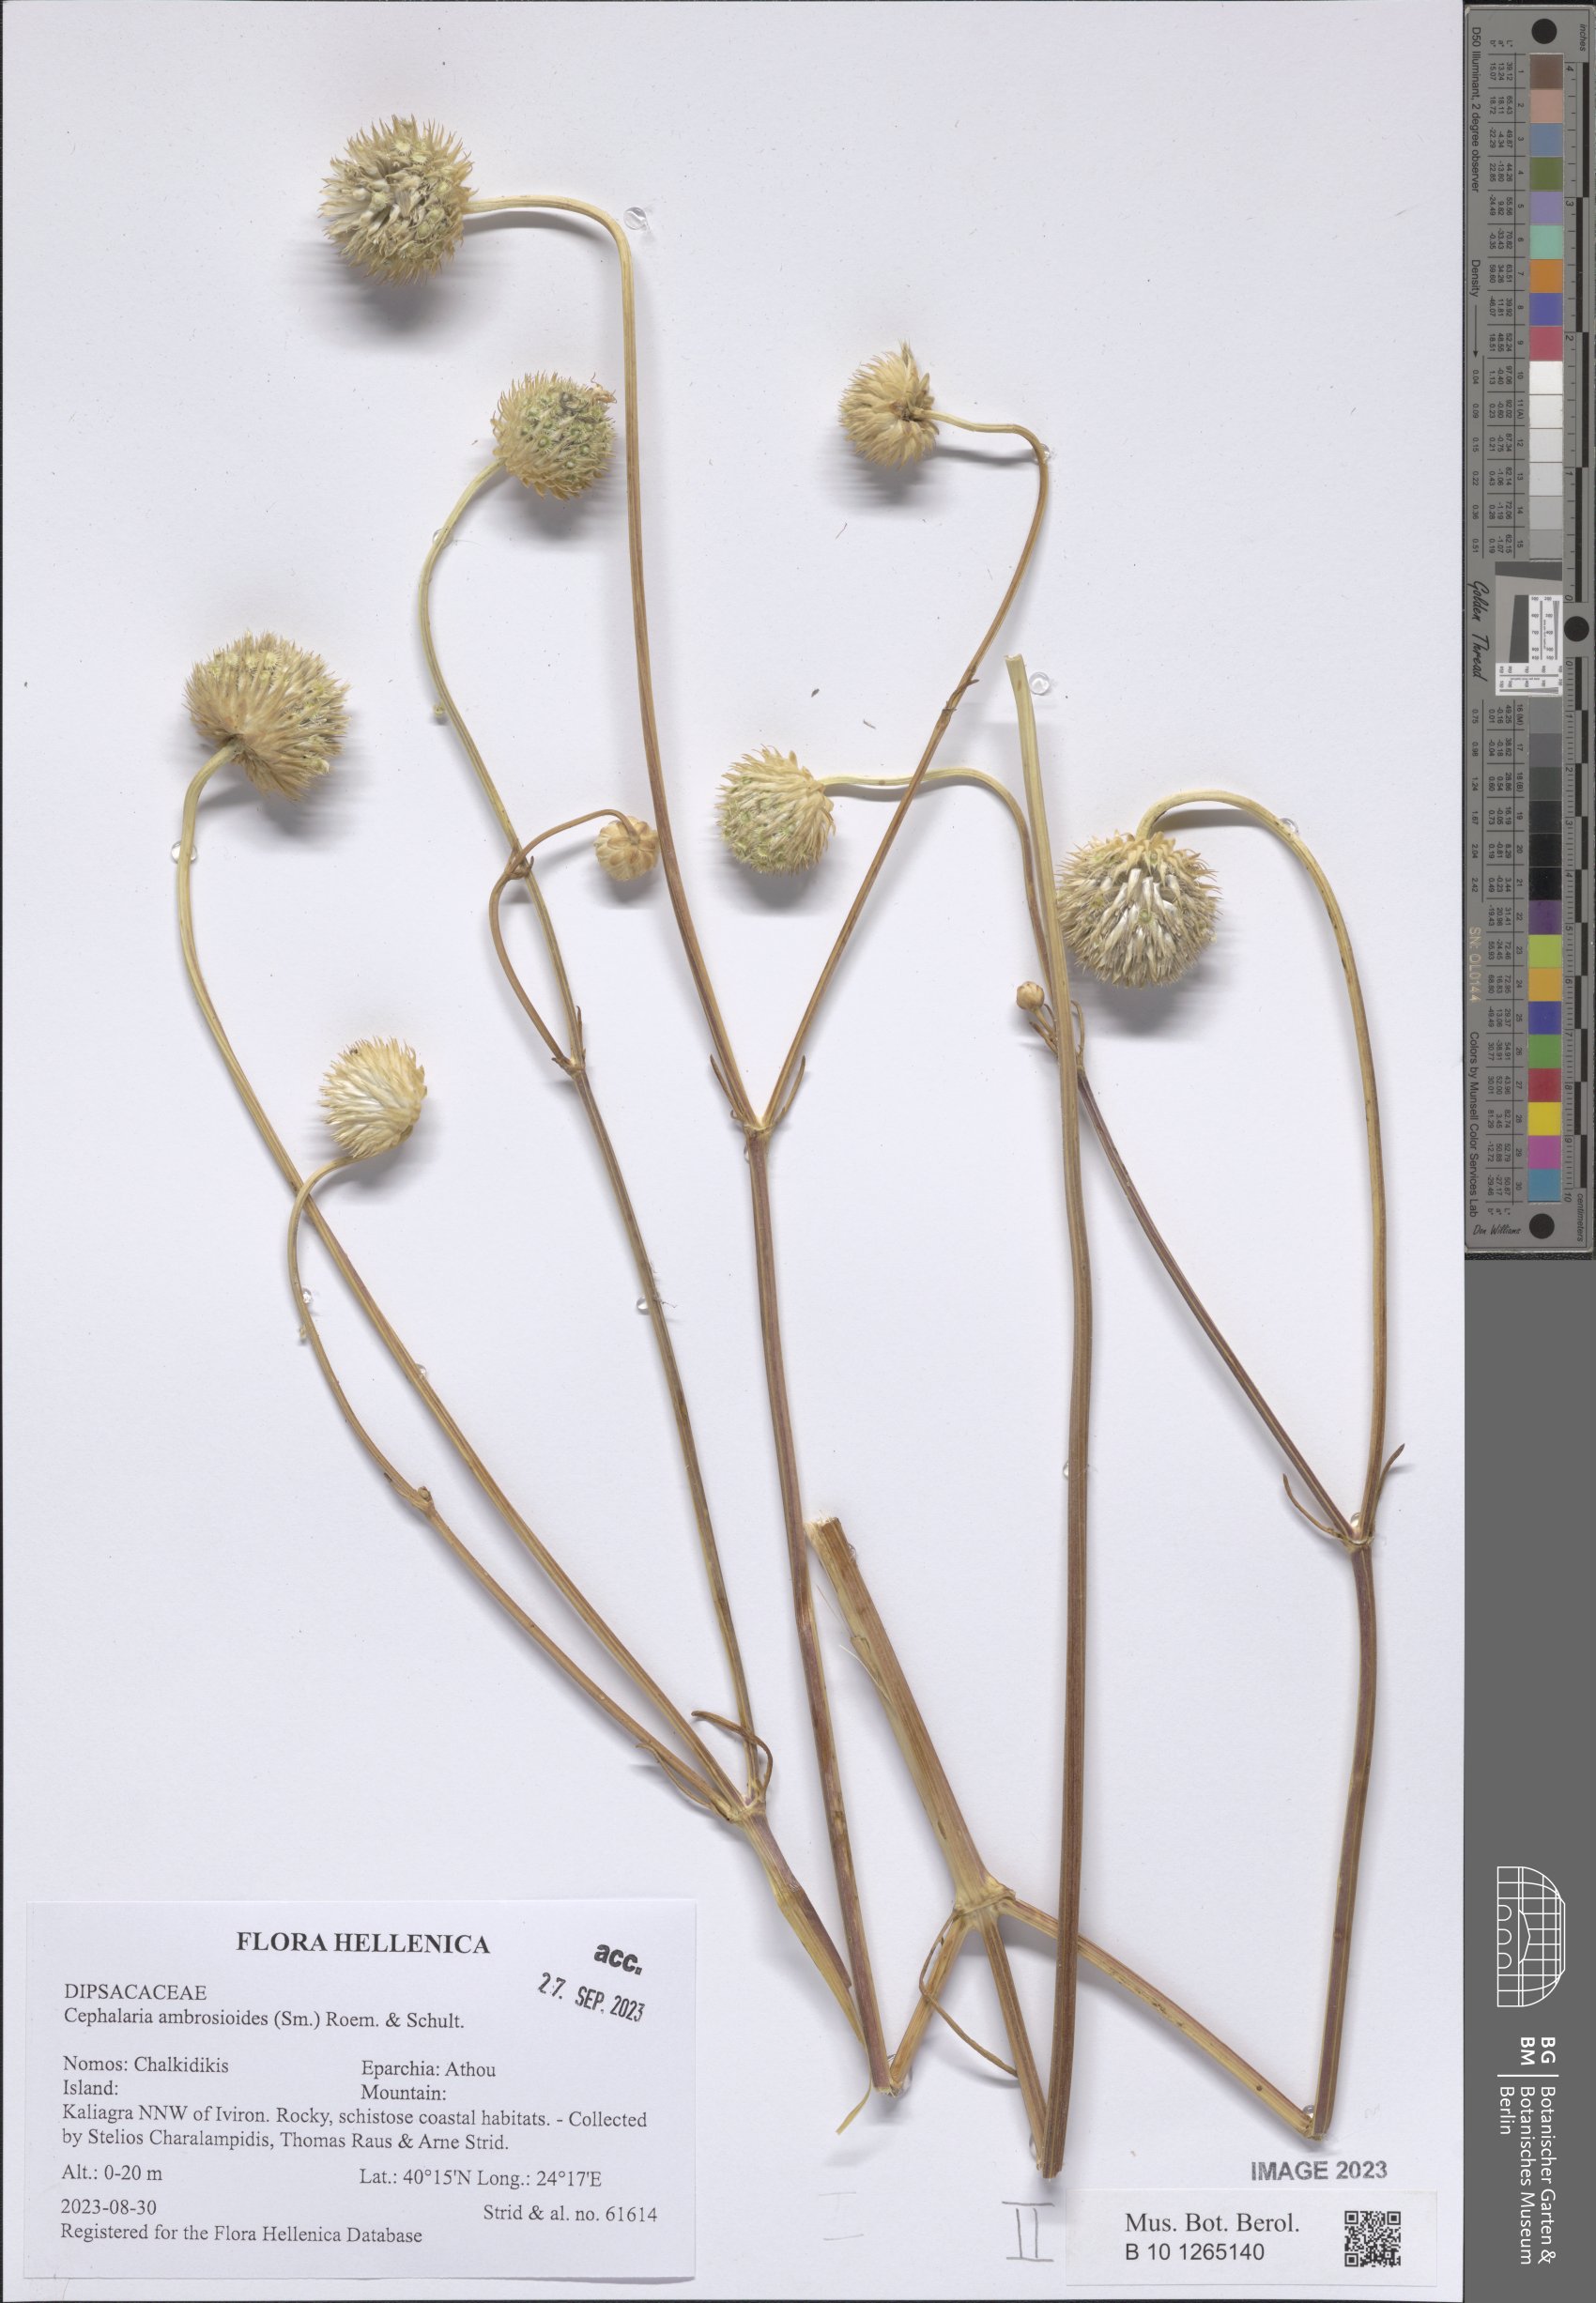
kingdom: Plantae
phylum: Tracheophyta
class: Magnoliopsida
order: Dipsacales
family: Caprifoliaceae
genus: Cephalaria
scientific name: Cephalaria ambrosioides
